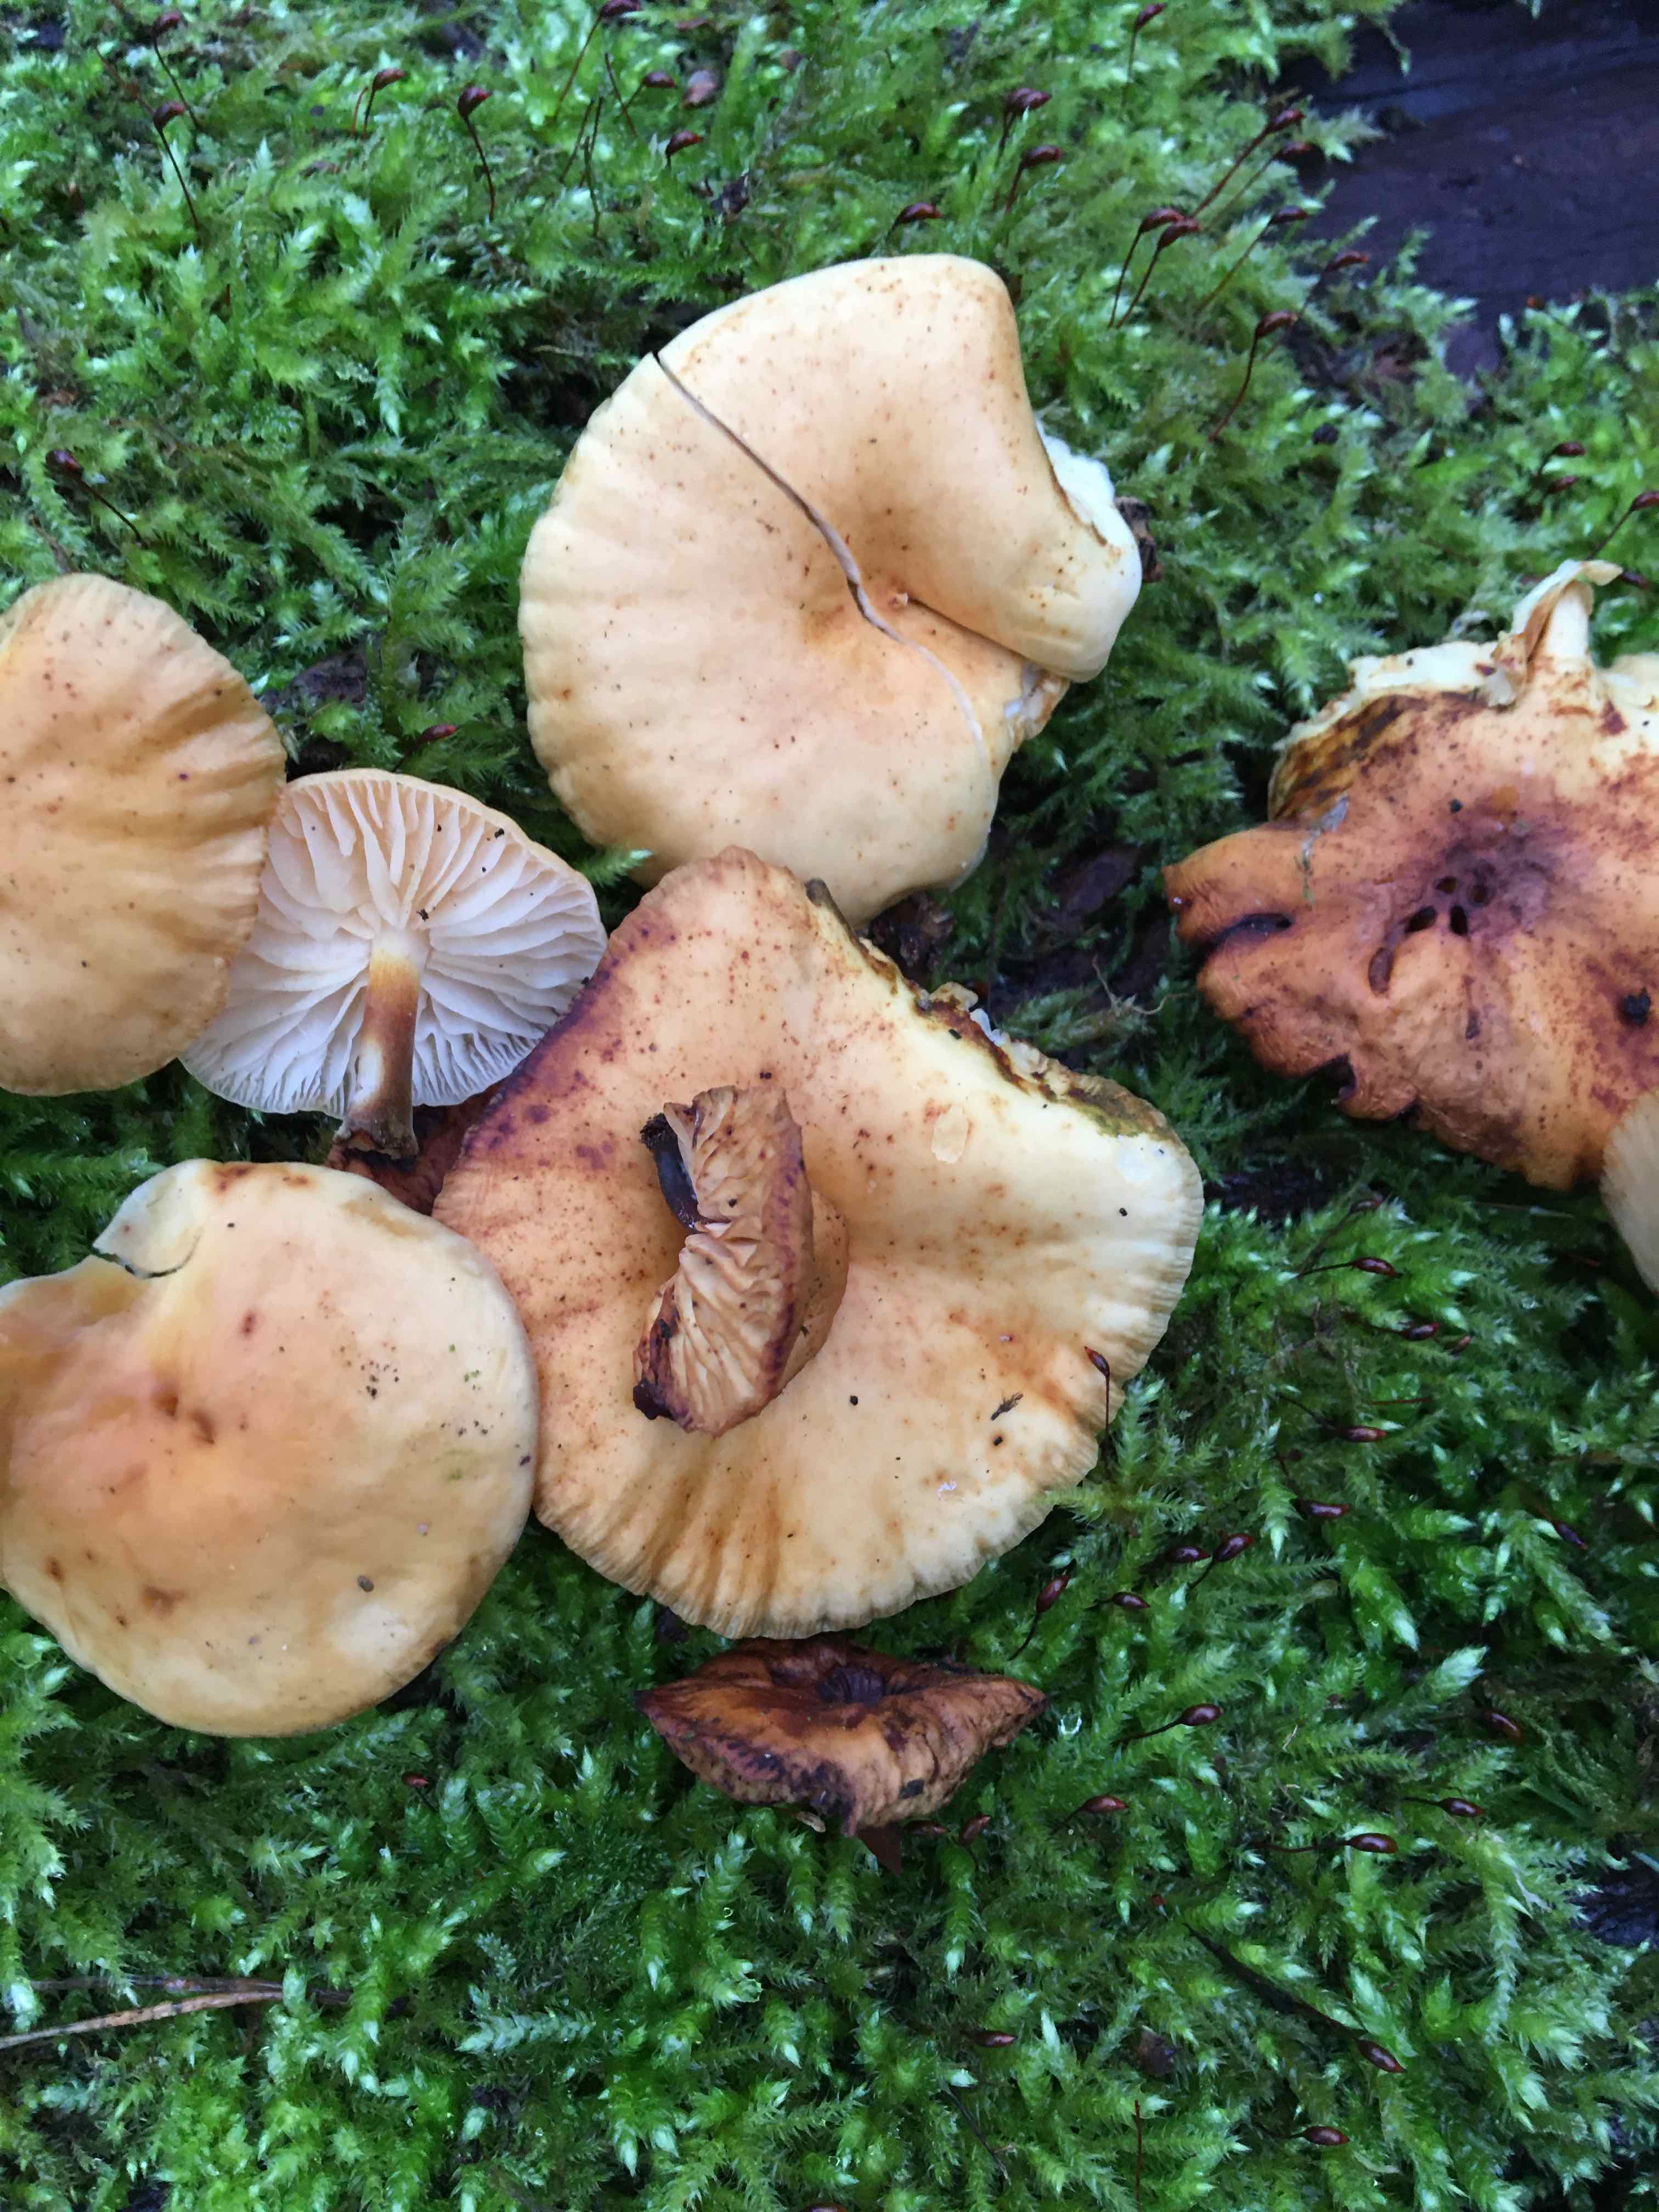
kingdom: Fungi
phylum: Basidiomycota
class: Agaricomycetes
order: Agaricales
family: Physalacriaceae
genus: Flammulina
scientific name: Flammulina
